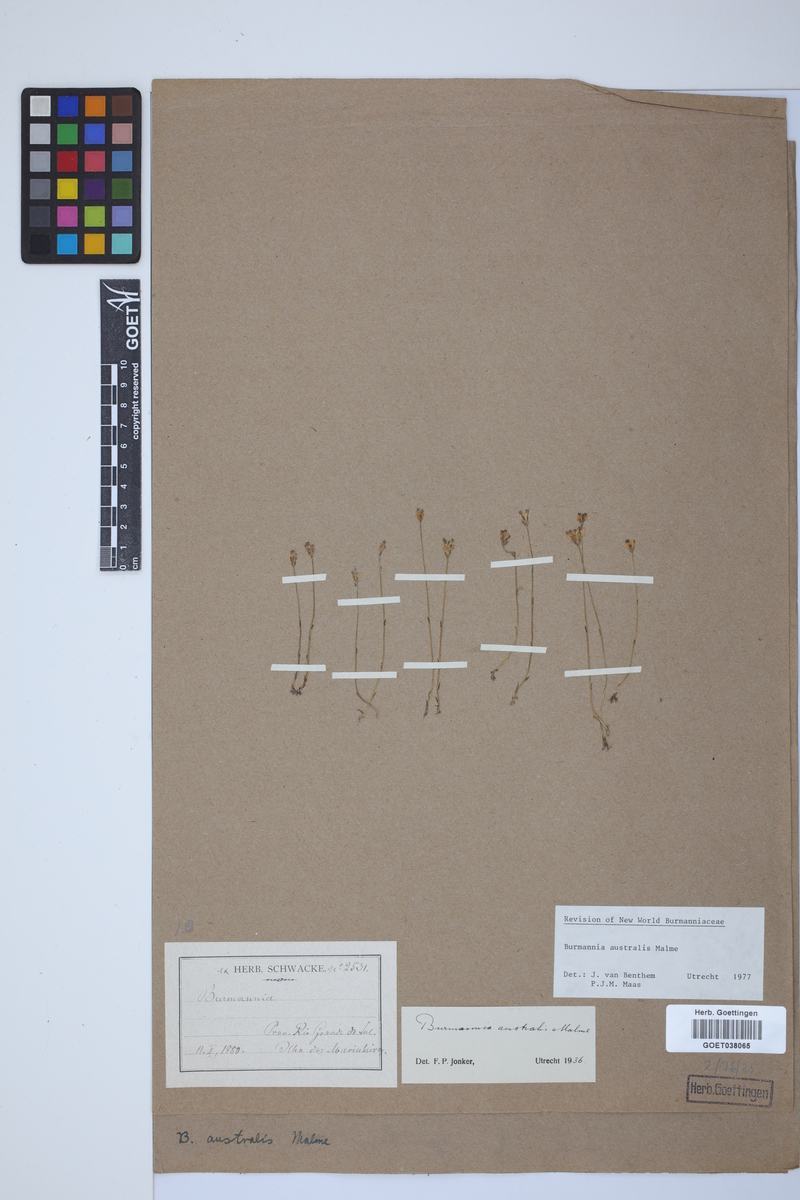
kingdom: Plantae
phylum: Tracheophyta
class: Liliopsida
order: Dioscoreales
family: Burmanniaceae
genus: Burmannia
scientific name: Burmannia australis
